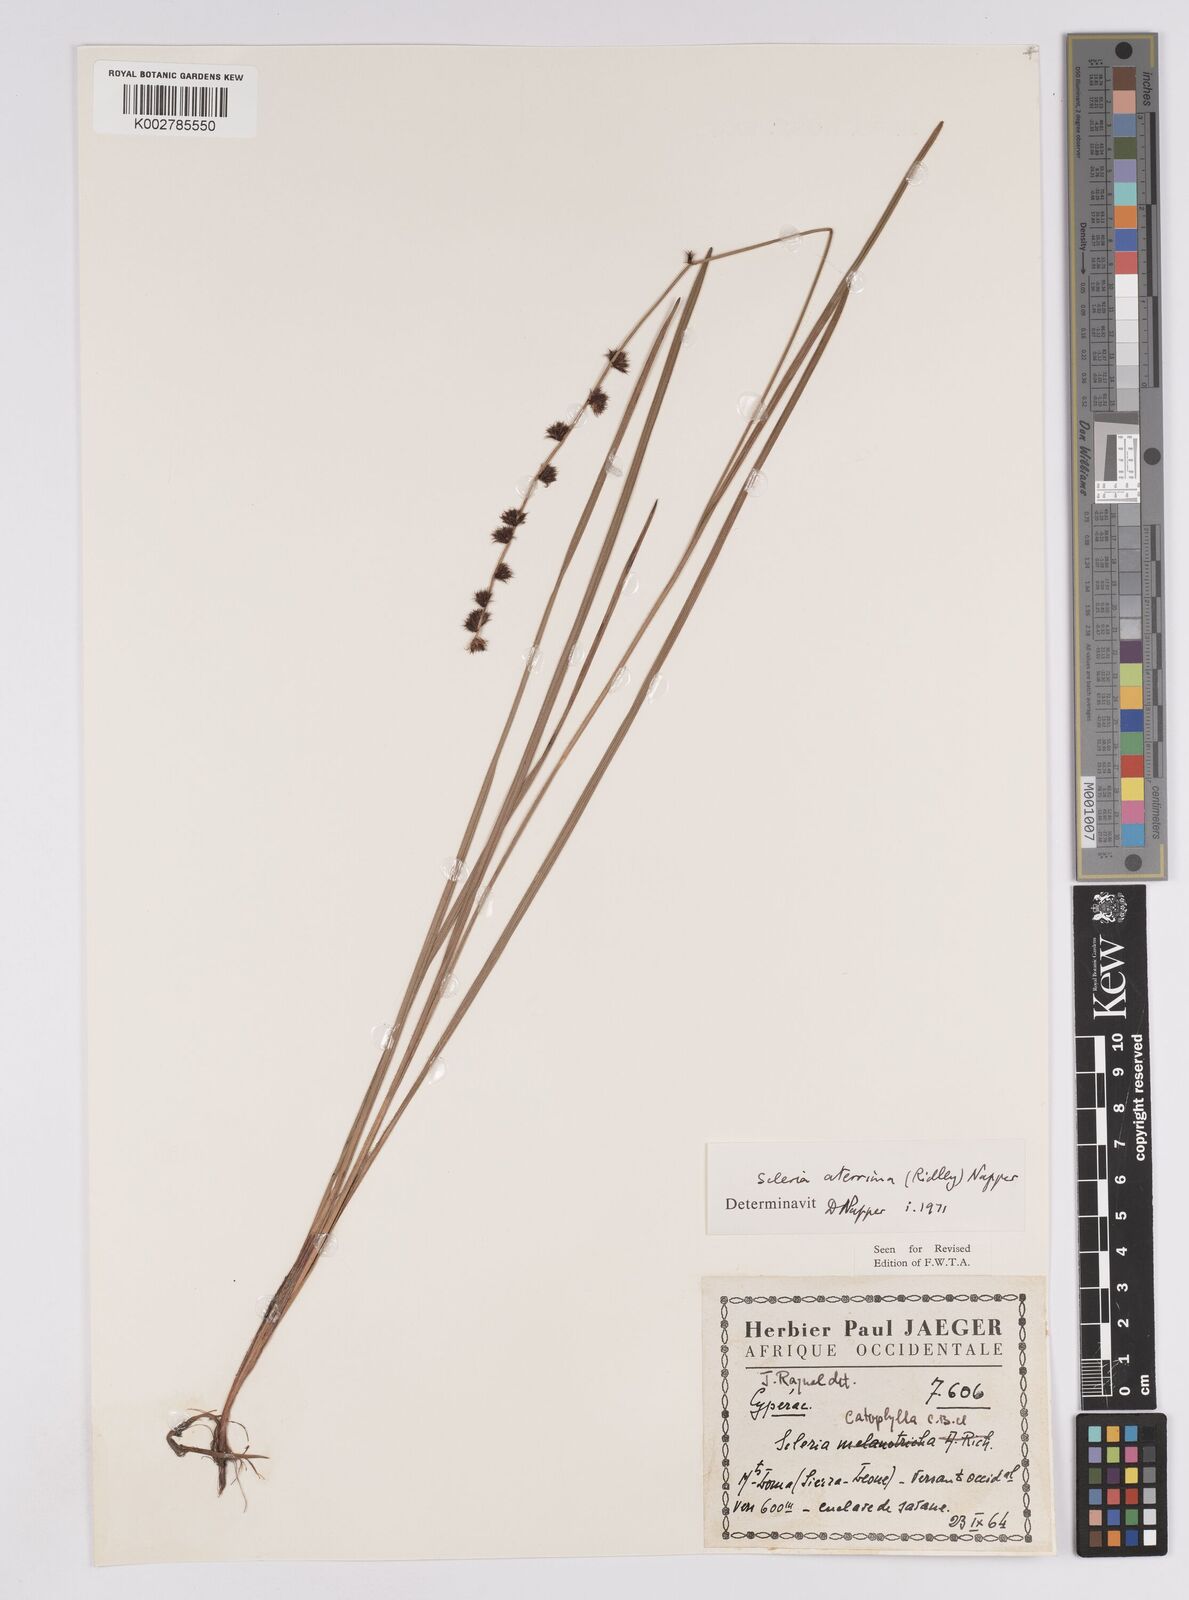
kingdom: Plantae
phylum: Tracheophyta
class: Liliopsida
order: Poales
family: Cyperaceae
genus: Scleria
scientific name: Scleria catophylla
